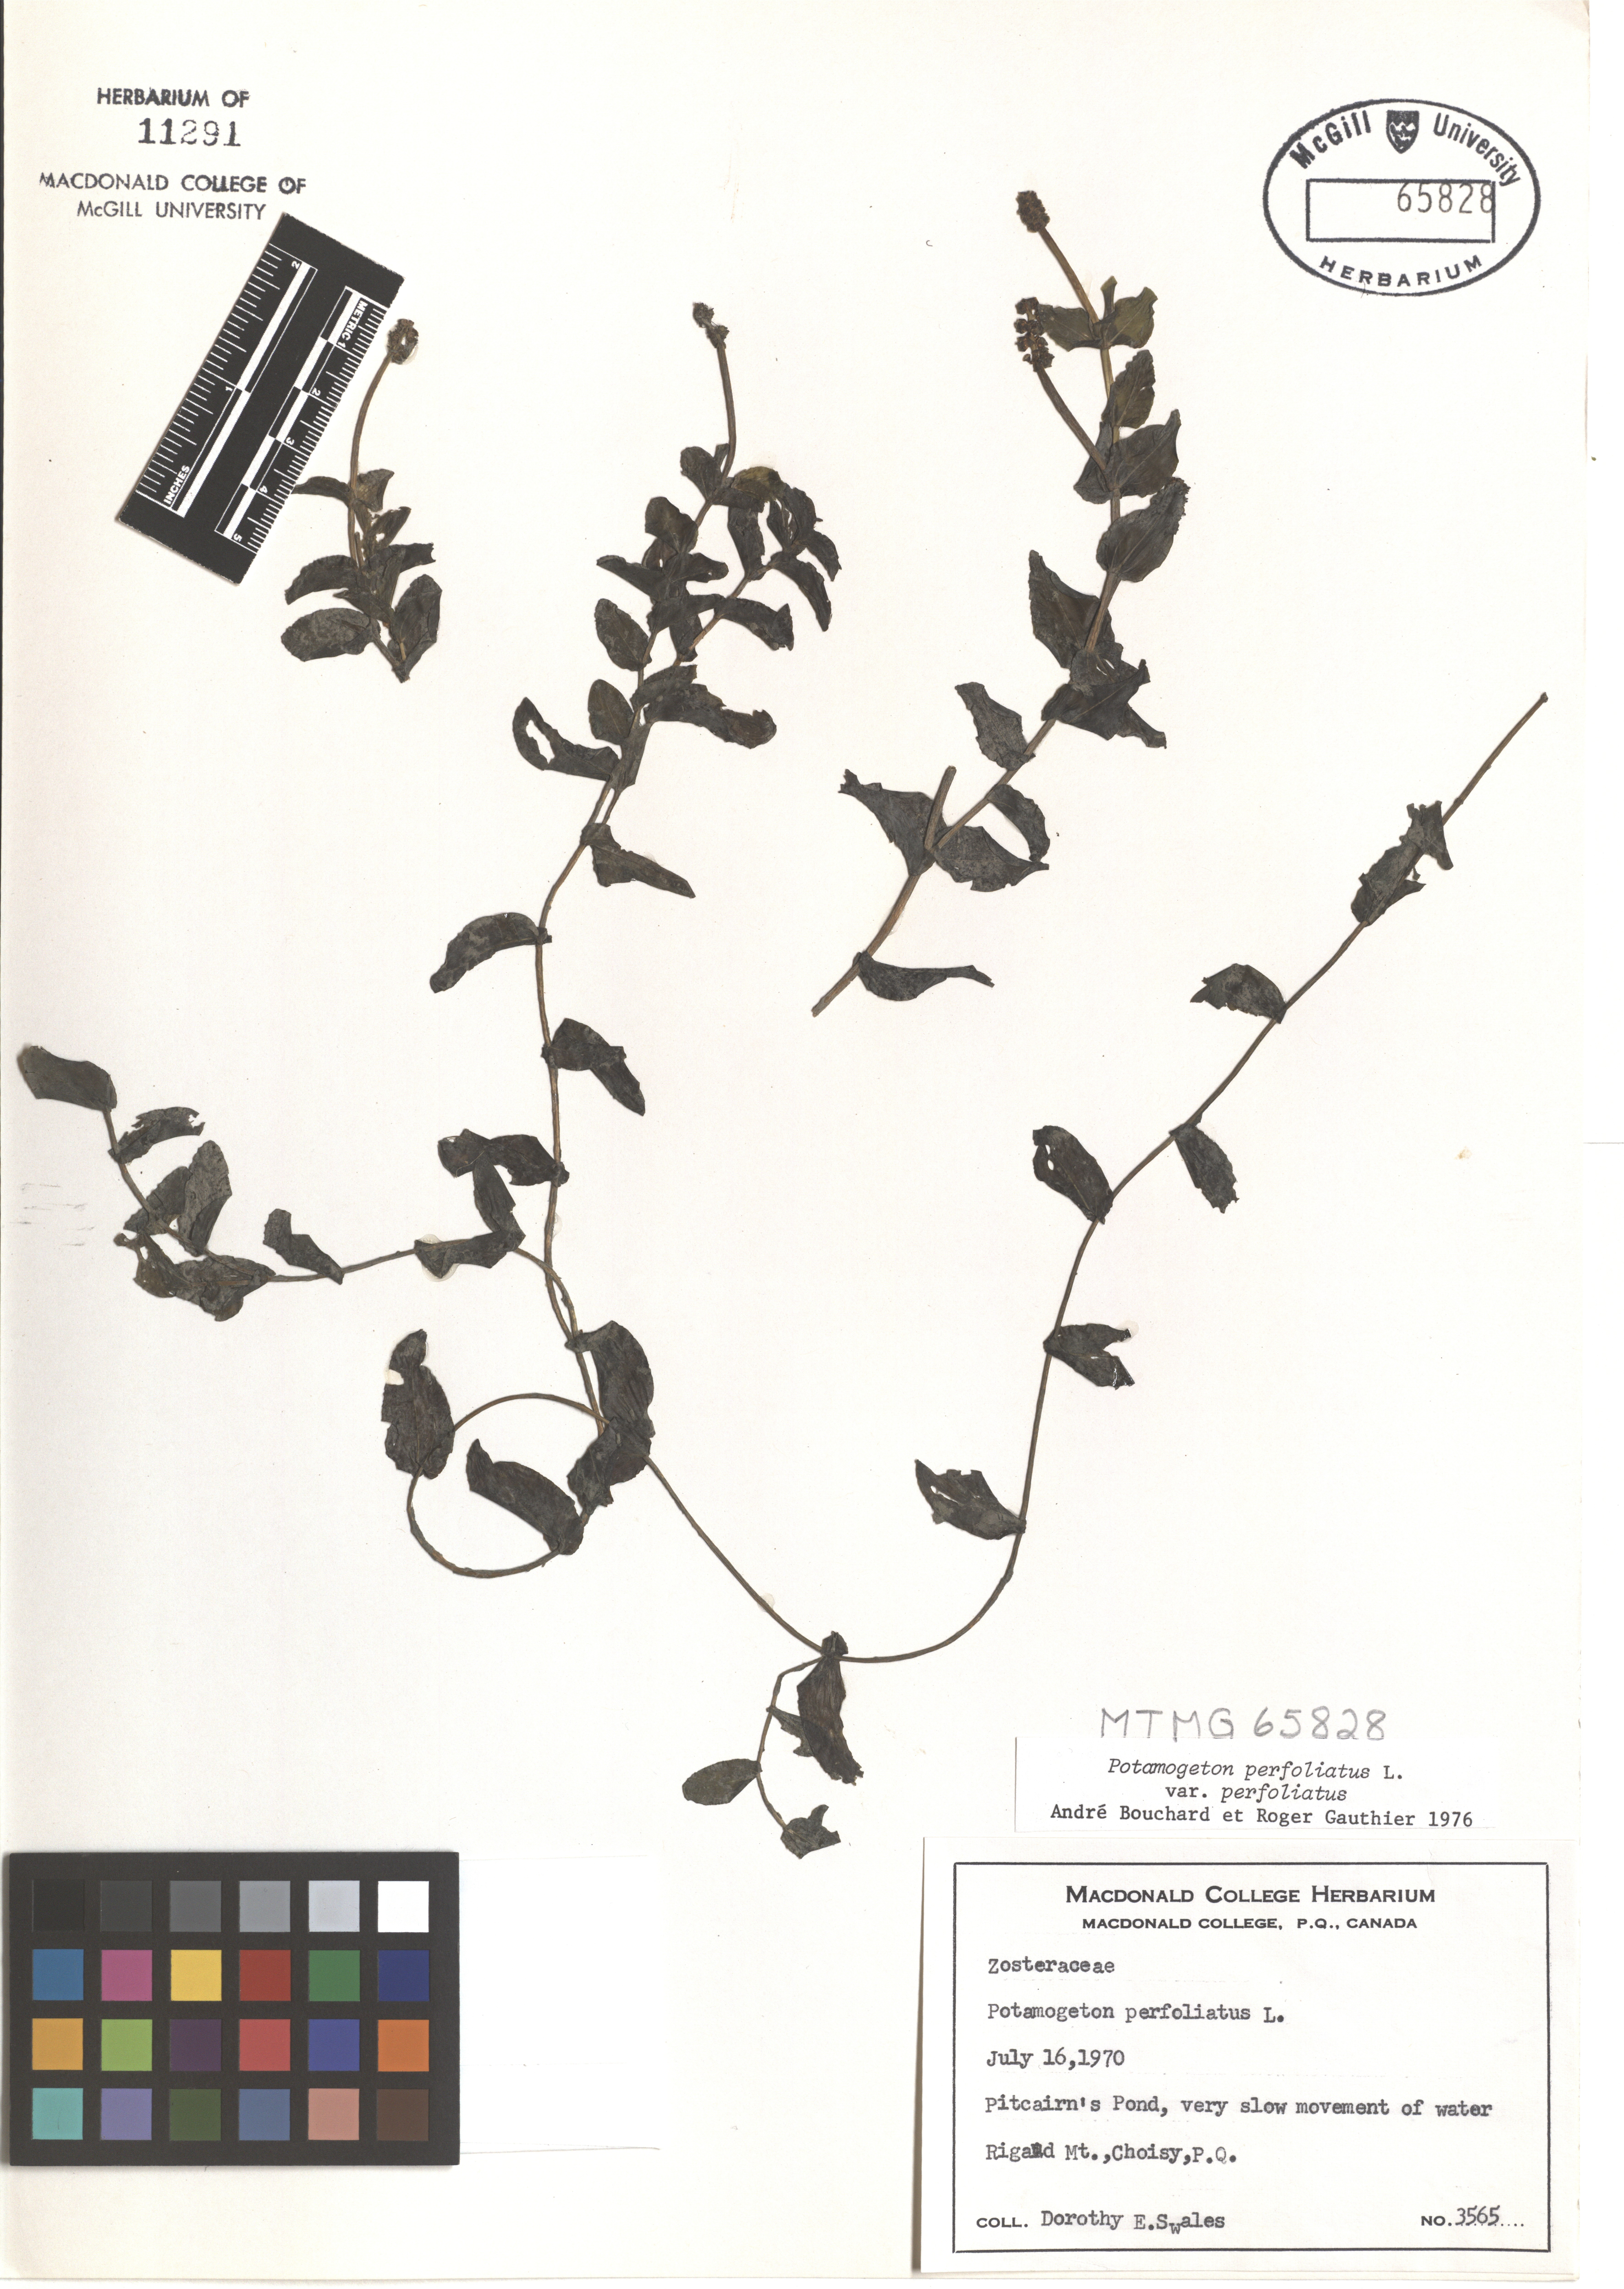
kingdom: Plantae
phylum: Tracheophyta
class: Liliopsida
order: Alismatales
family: Potamogetonaceae
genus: Potamogeton
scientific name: Potamogeton perfoliatus
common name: Perfoliate pondweed
